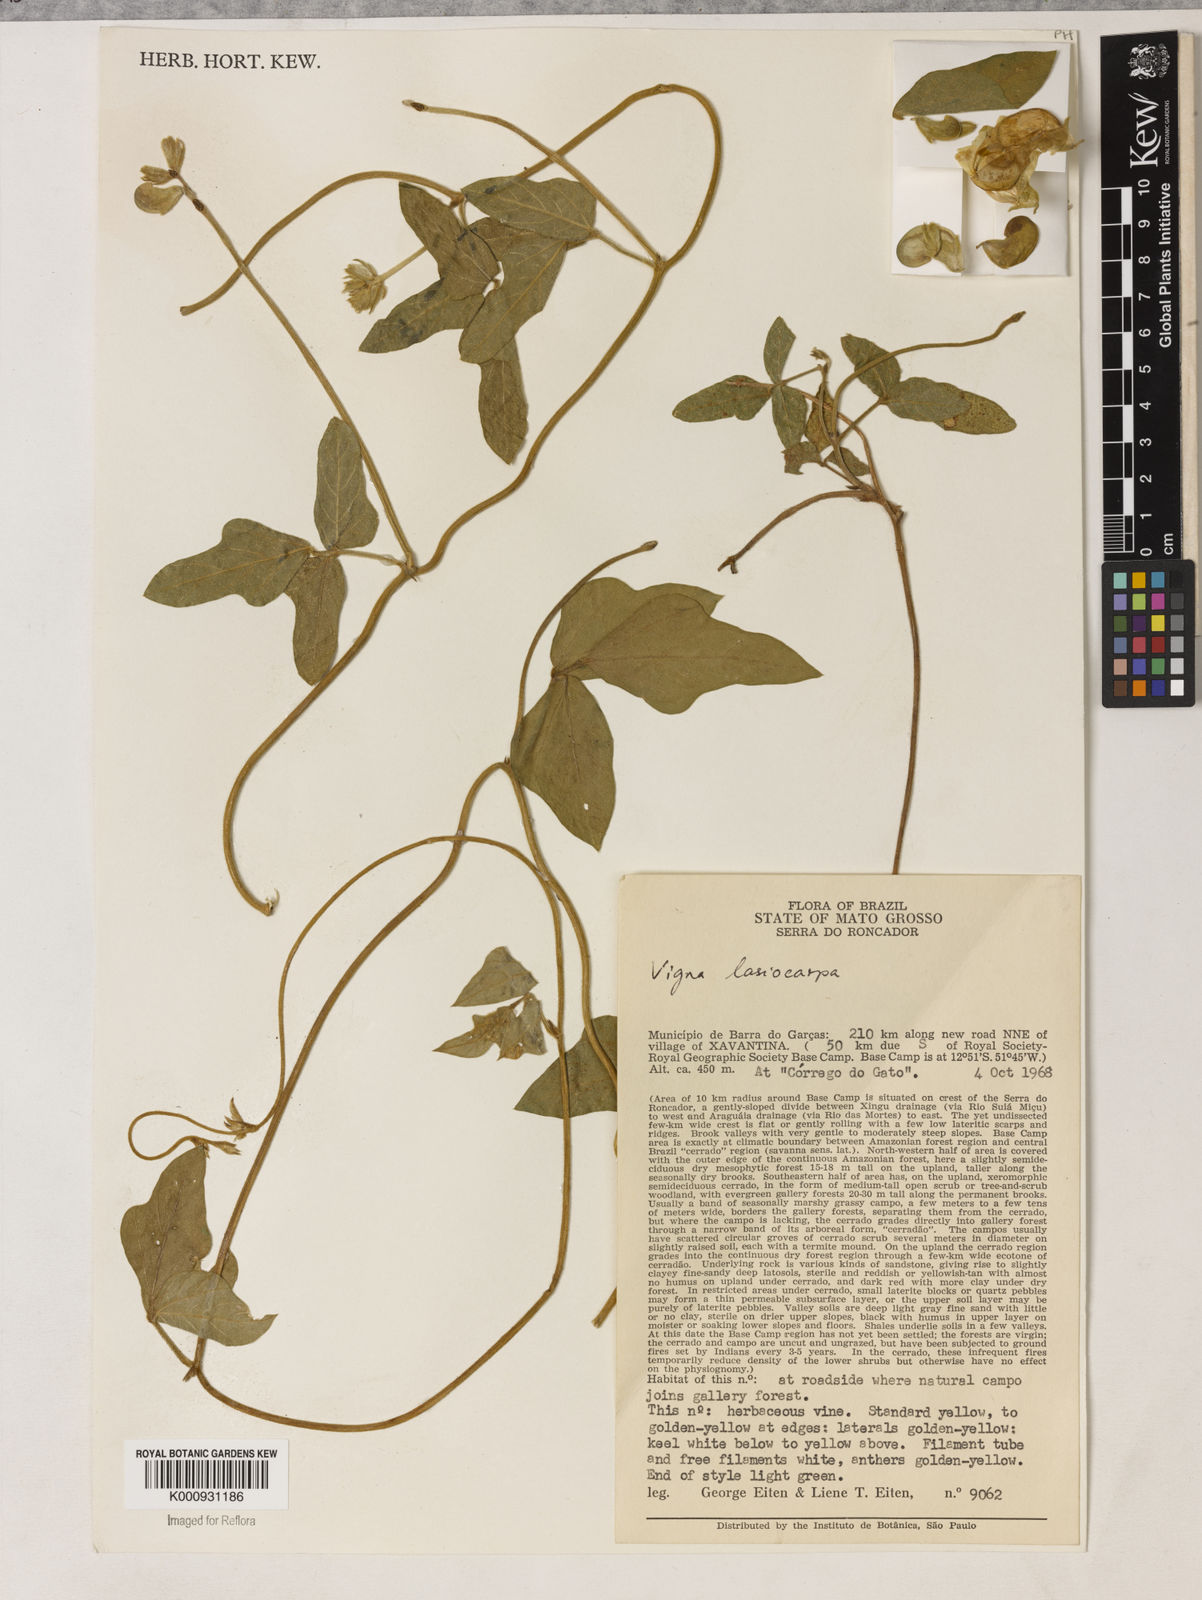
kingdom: Plantae
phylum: Tracheophyta
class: Magnoliopsida
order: Fabales
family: Fabaceae
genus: Vigna
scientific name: Vigna lasiocarpa
